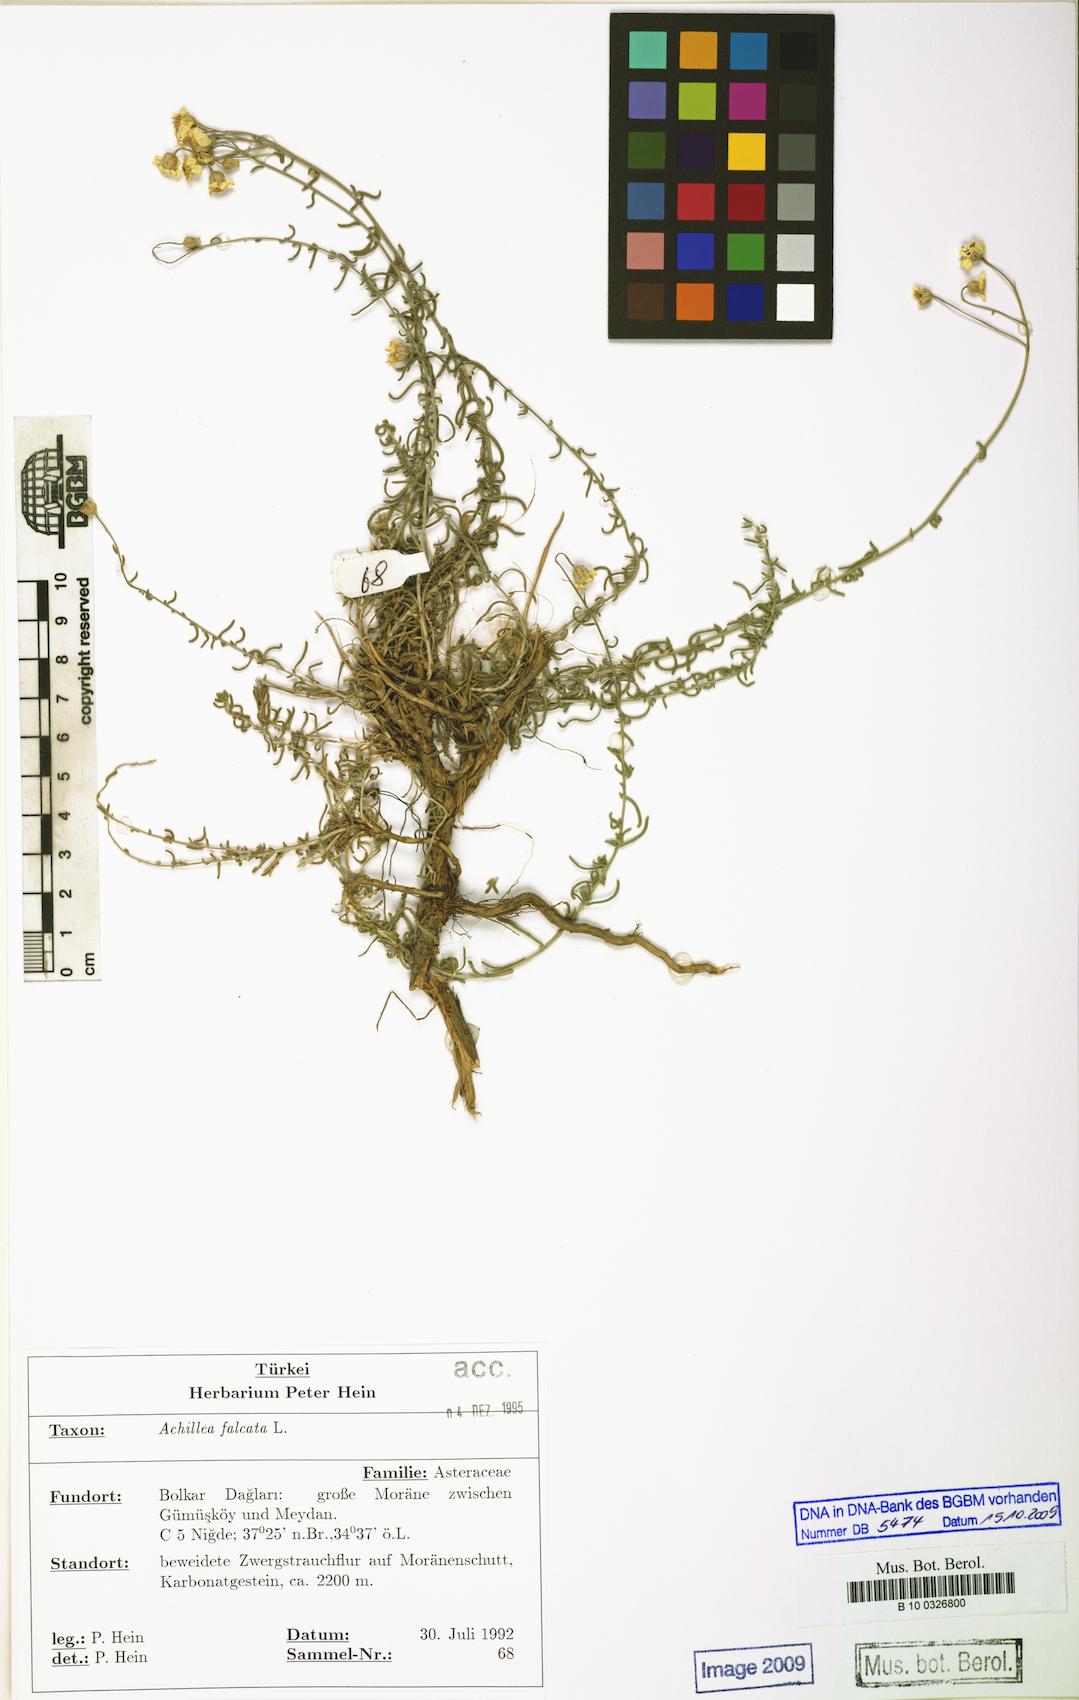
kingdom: Plantae
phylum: Tracheophyta
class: Magnoliopsida
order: Asterales
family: Asteraceae
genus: Achillea
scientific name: Achillea falcata
